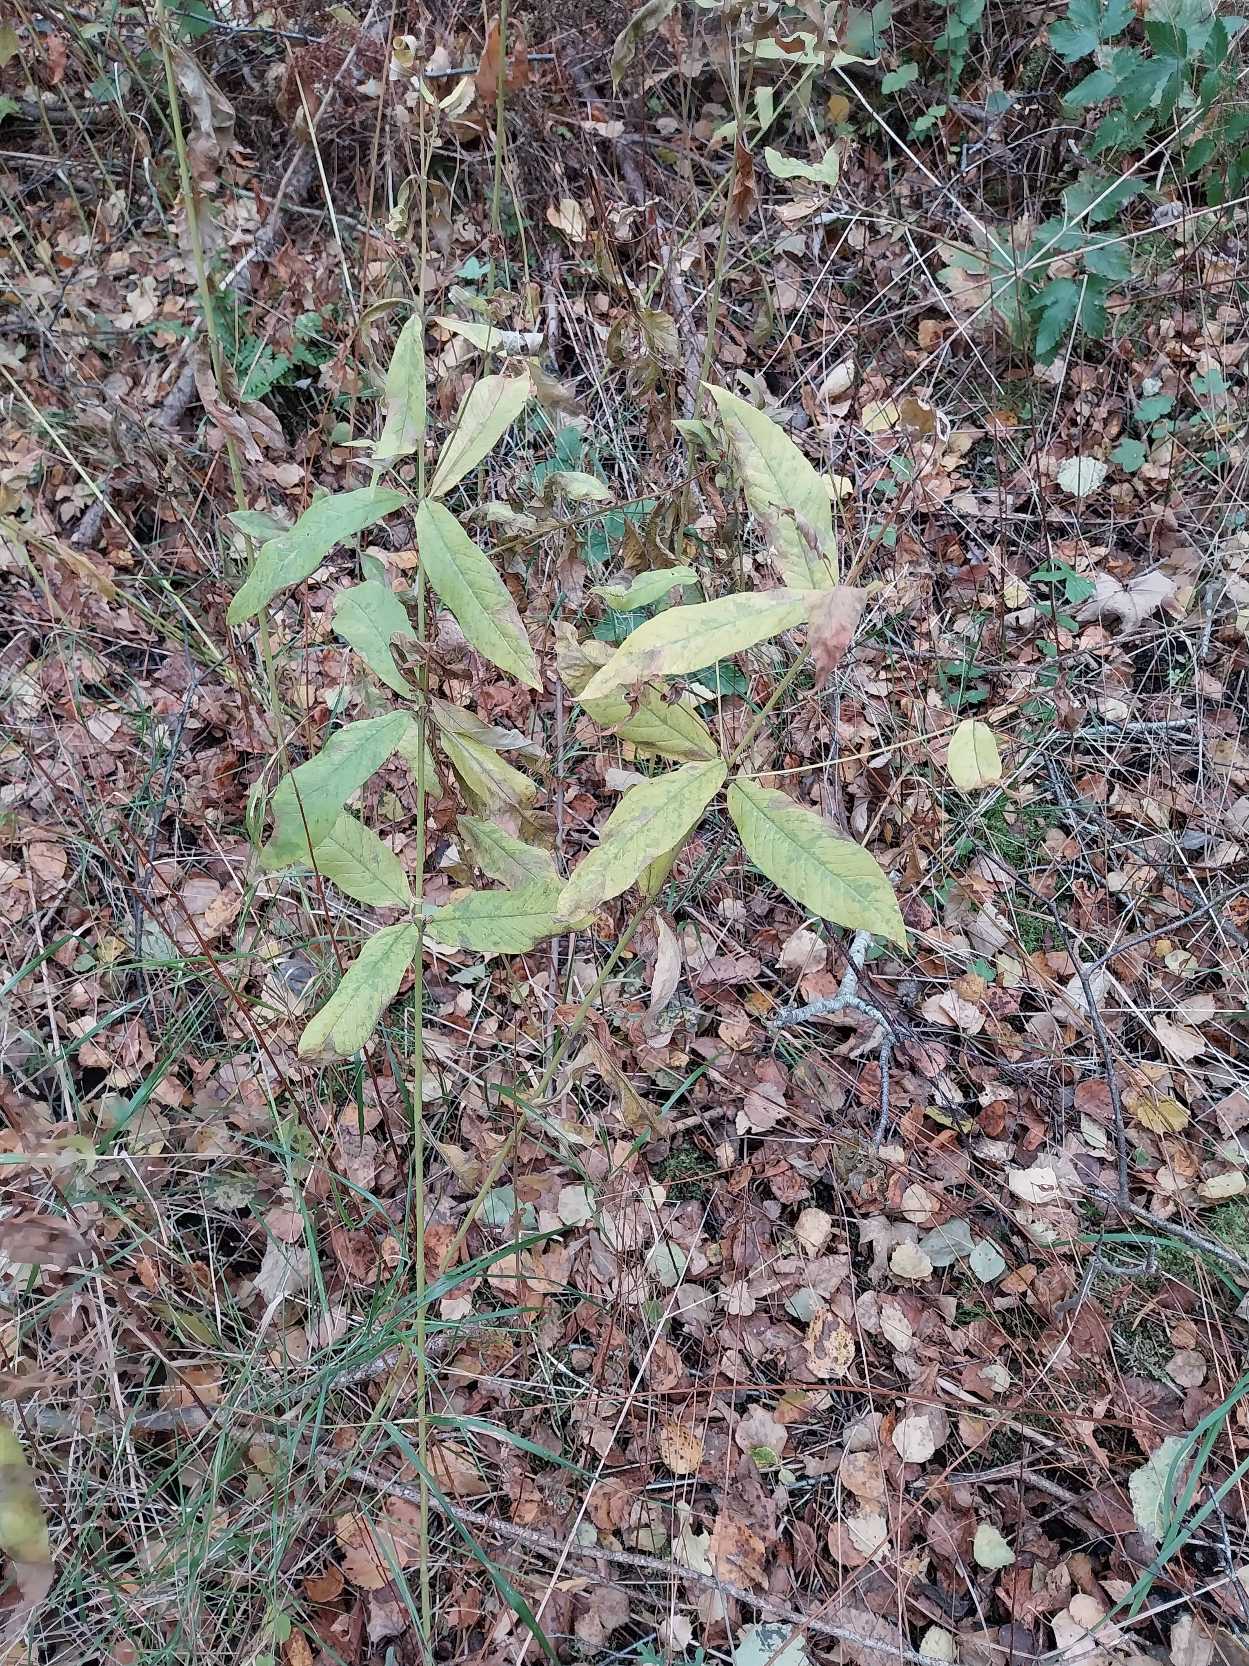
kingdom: Plantae
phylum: Tracheophyta
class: Magnoliopsida
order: Ericales
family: Primulaceae
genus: Lysimachia
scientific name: Lysimachia vulgaris
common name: Almindelig fredløs
